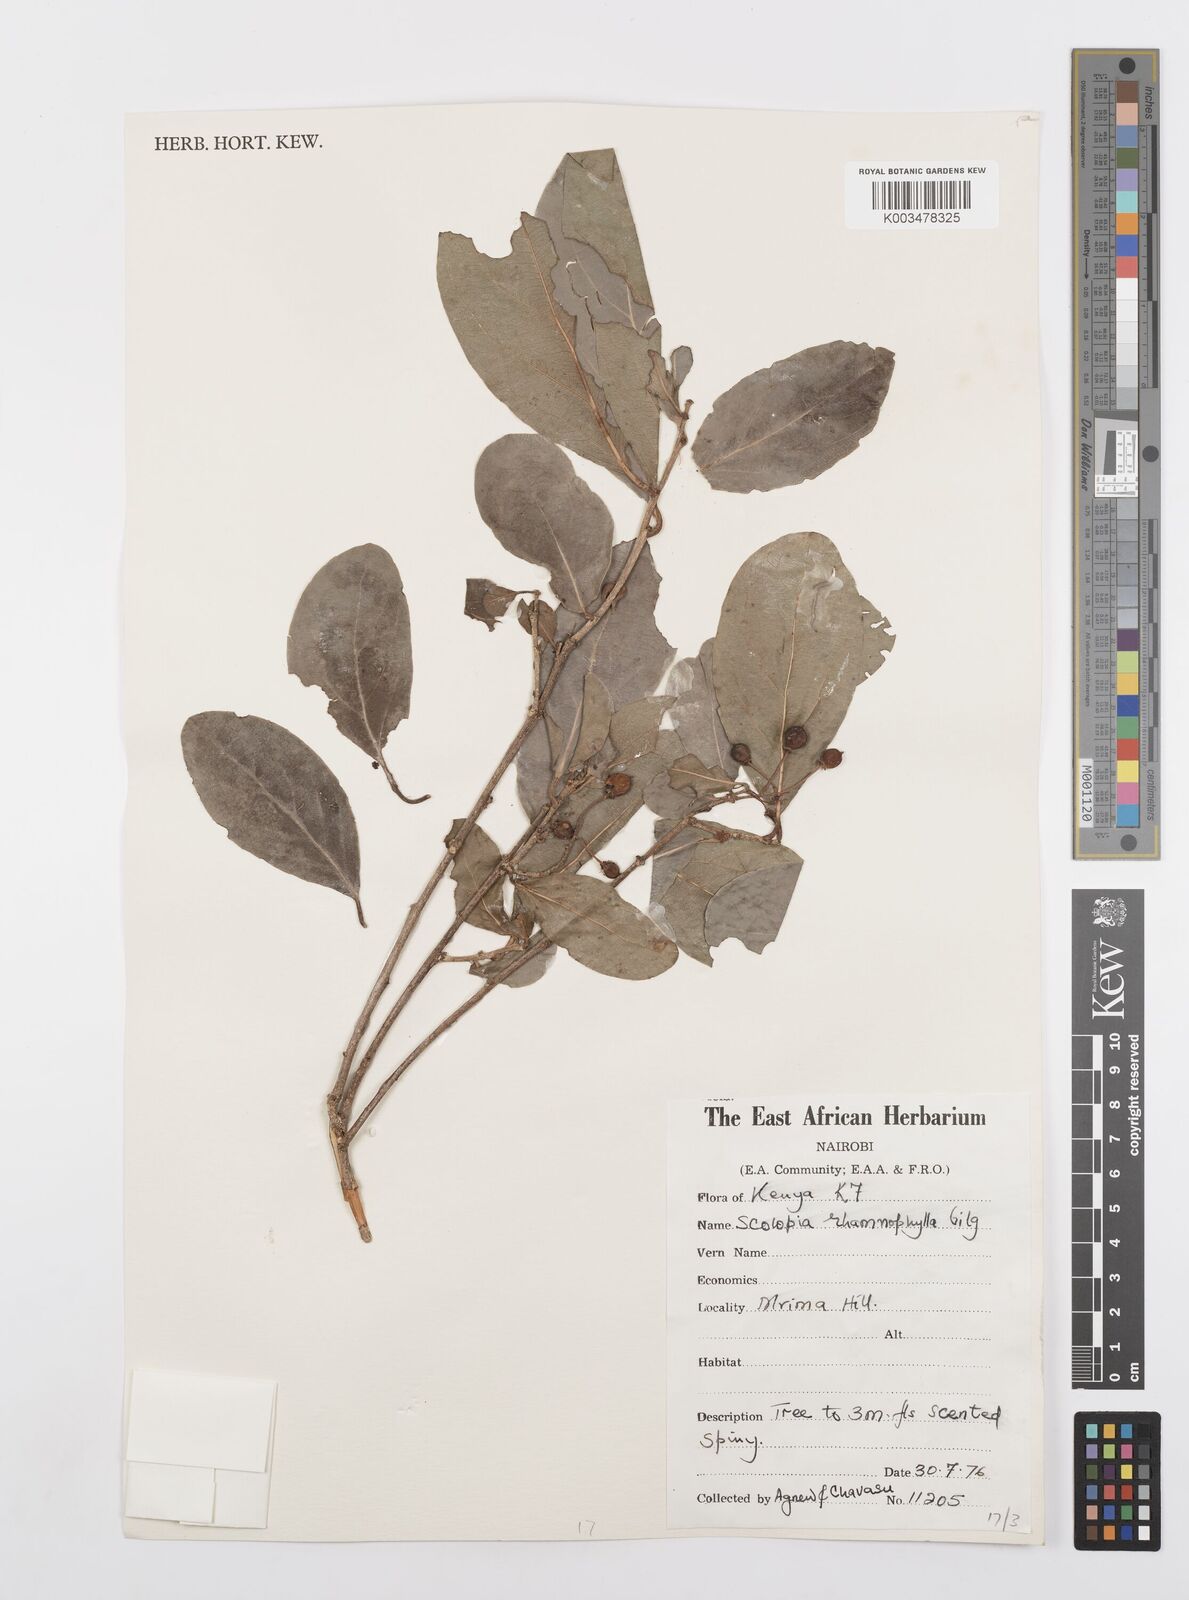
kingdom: Plantae
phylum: Tracheophyta
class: Magnoliopsida
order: Malpighiales
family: Salicaceae
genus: Scolopia
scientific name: Scolopia rhamniphylla
